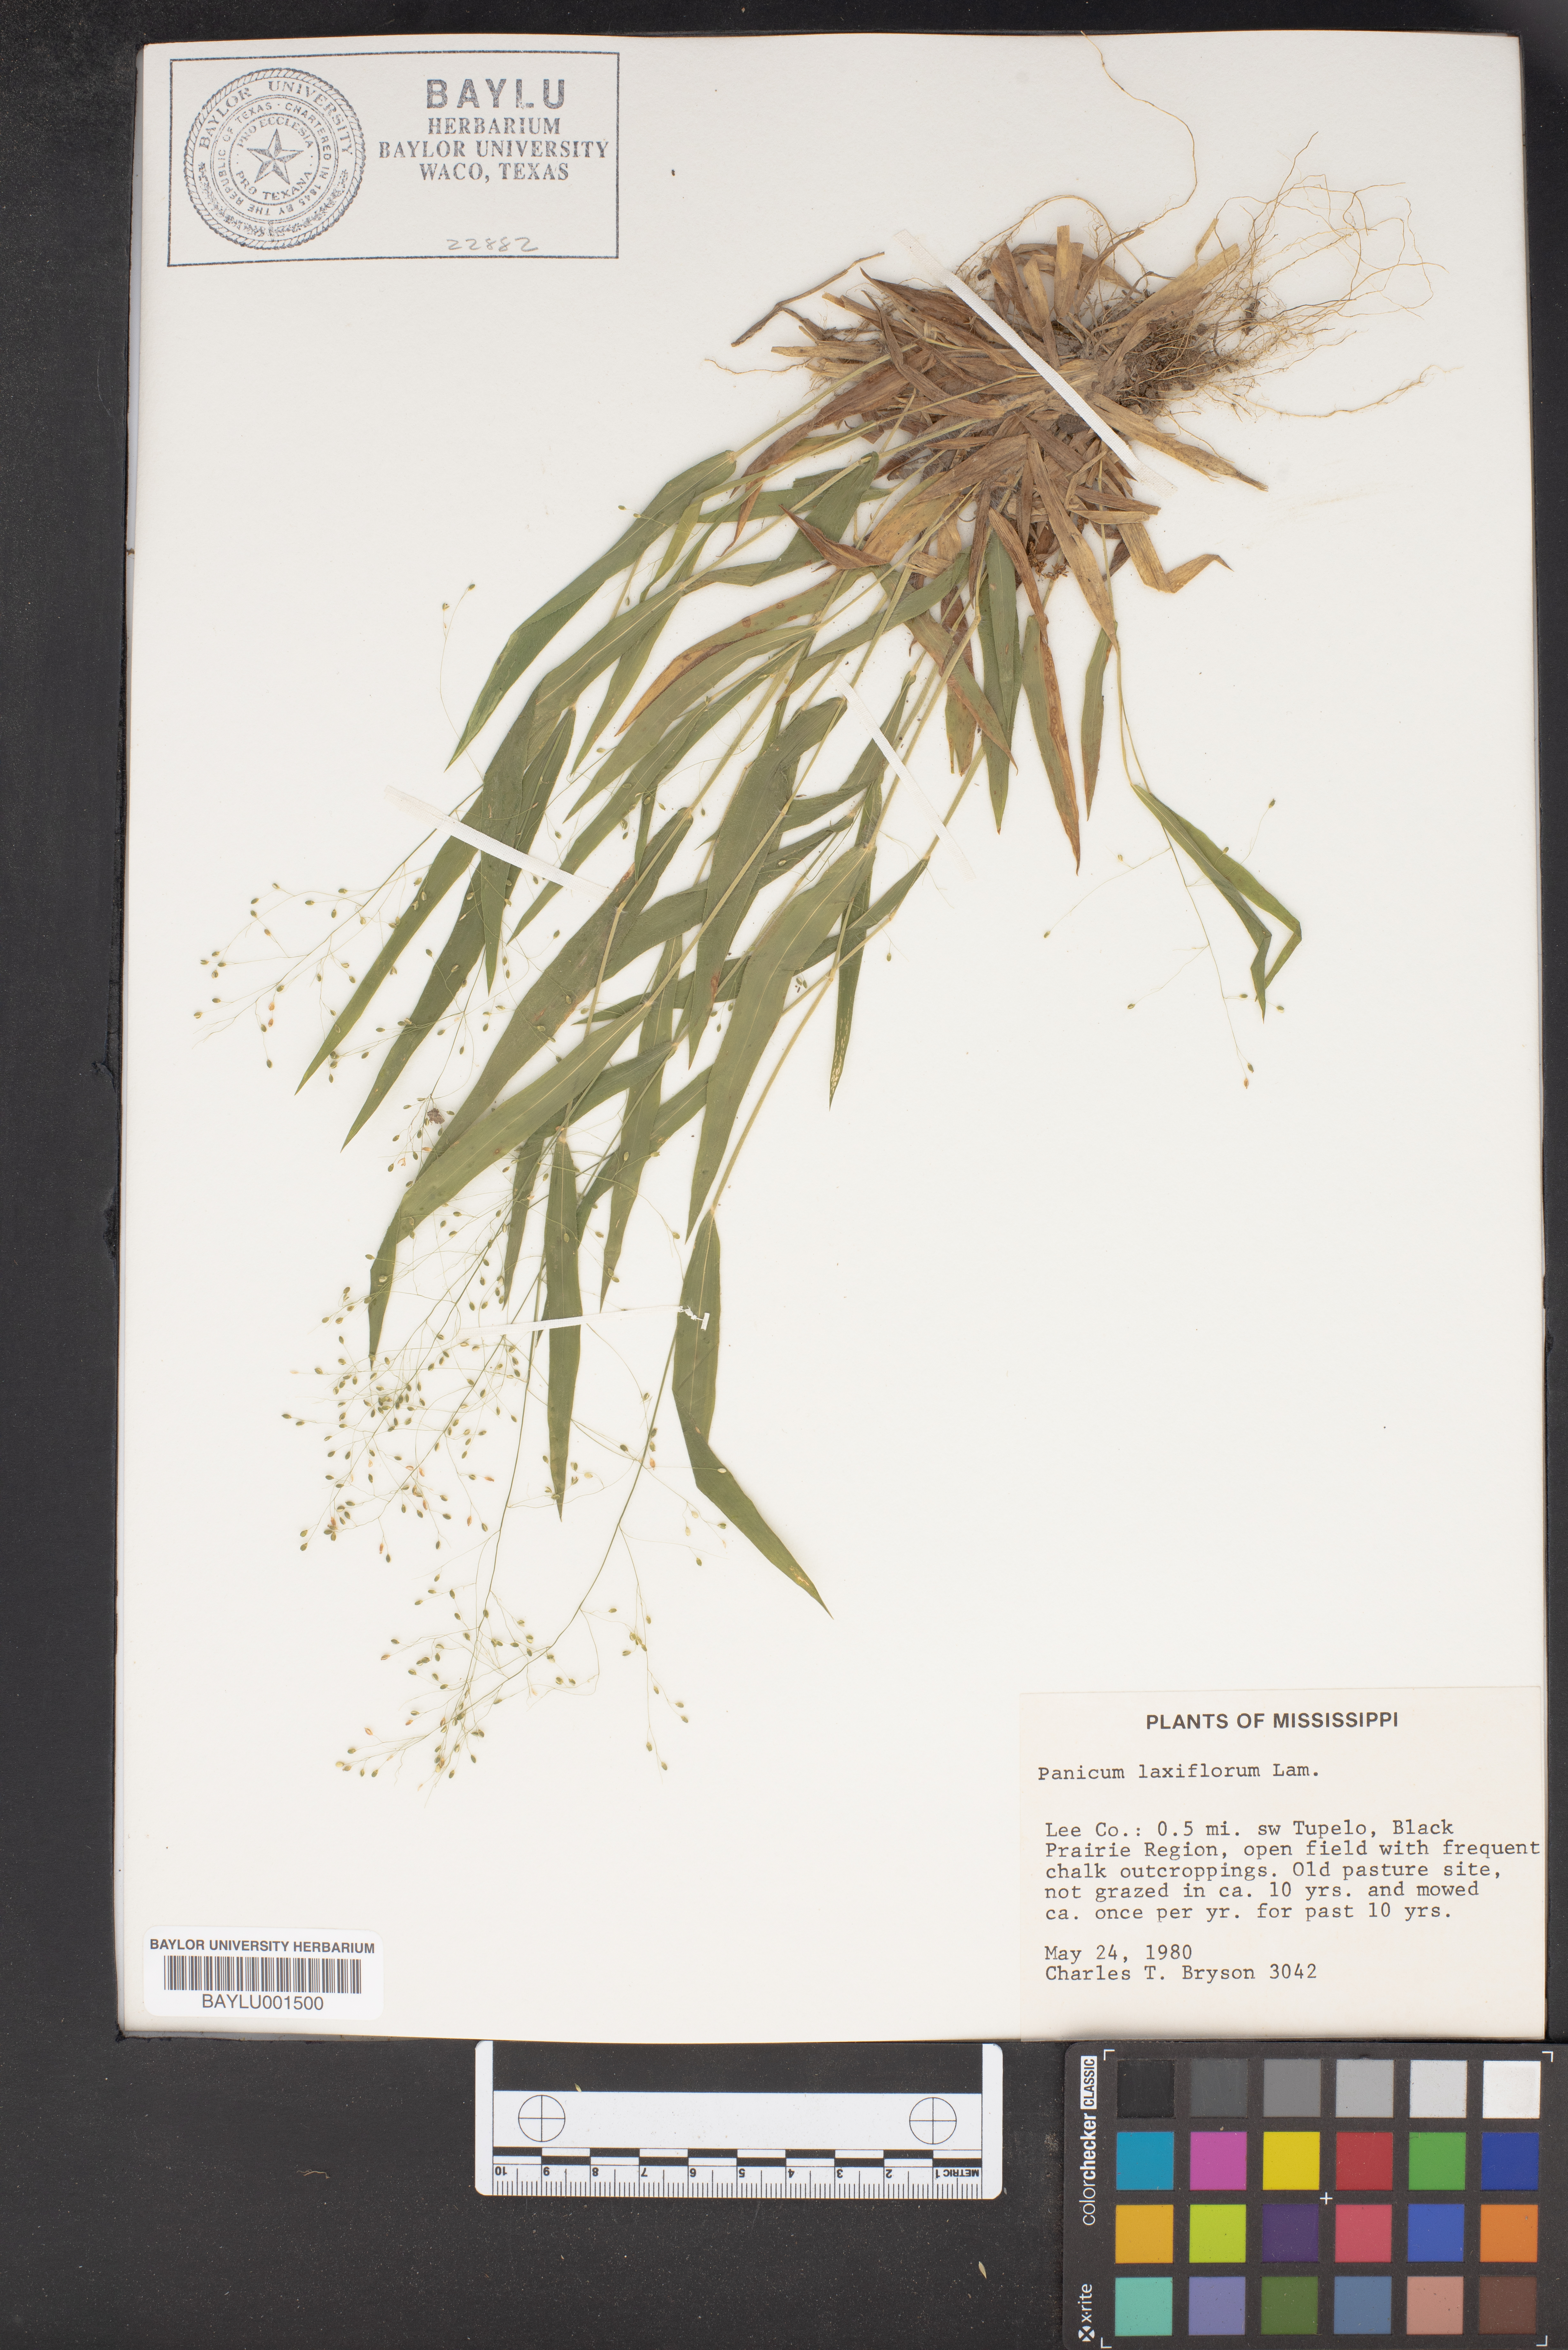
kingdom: Plantae
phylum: Tracheophyta
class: Liliopsida
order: Poales
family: Poaceae
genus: Dichanthelium
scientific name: Dichanthelium laxiflorum
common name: Soft-tuft panic grass
